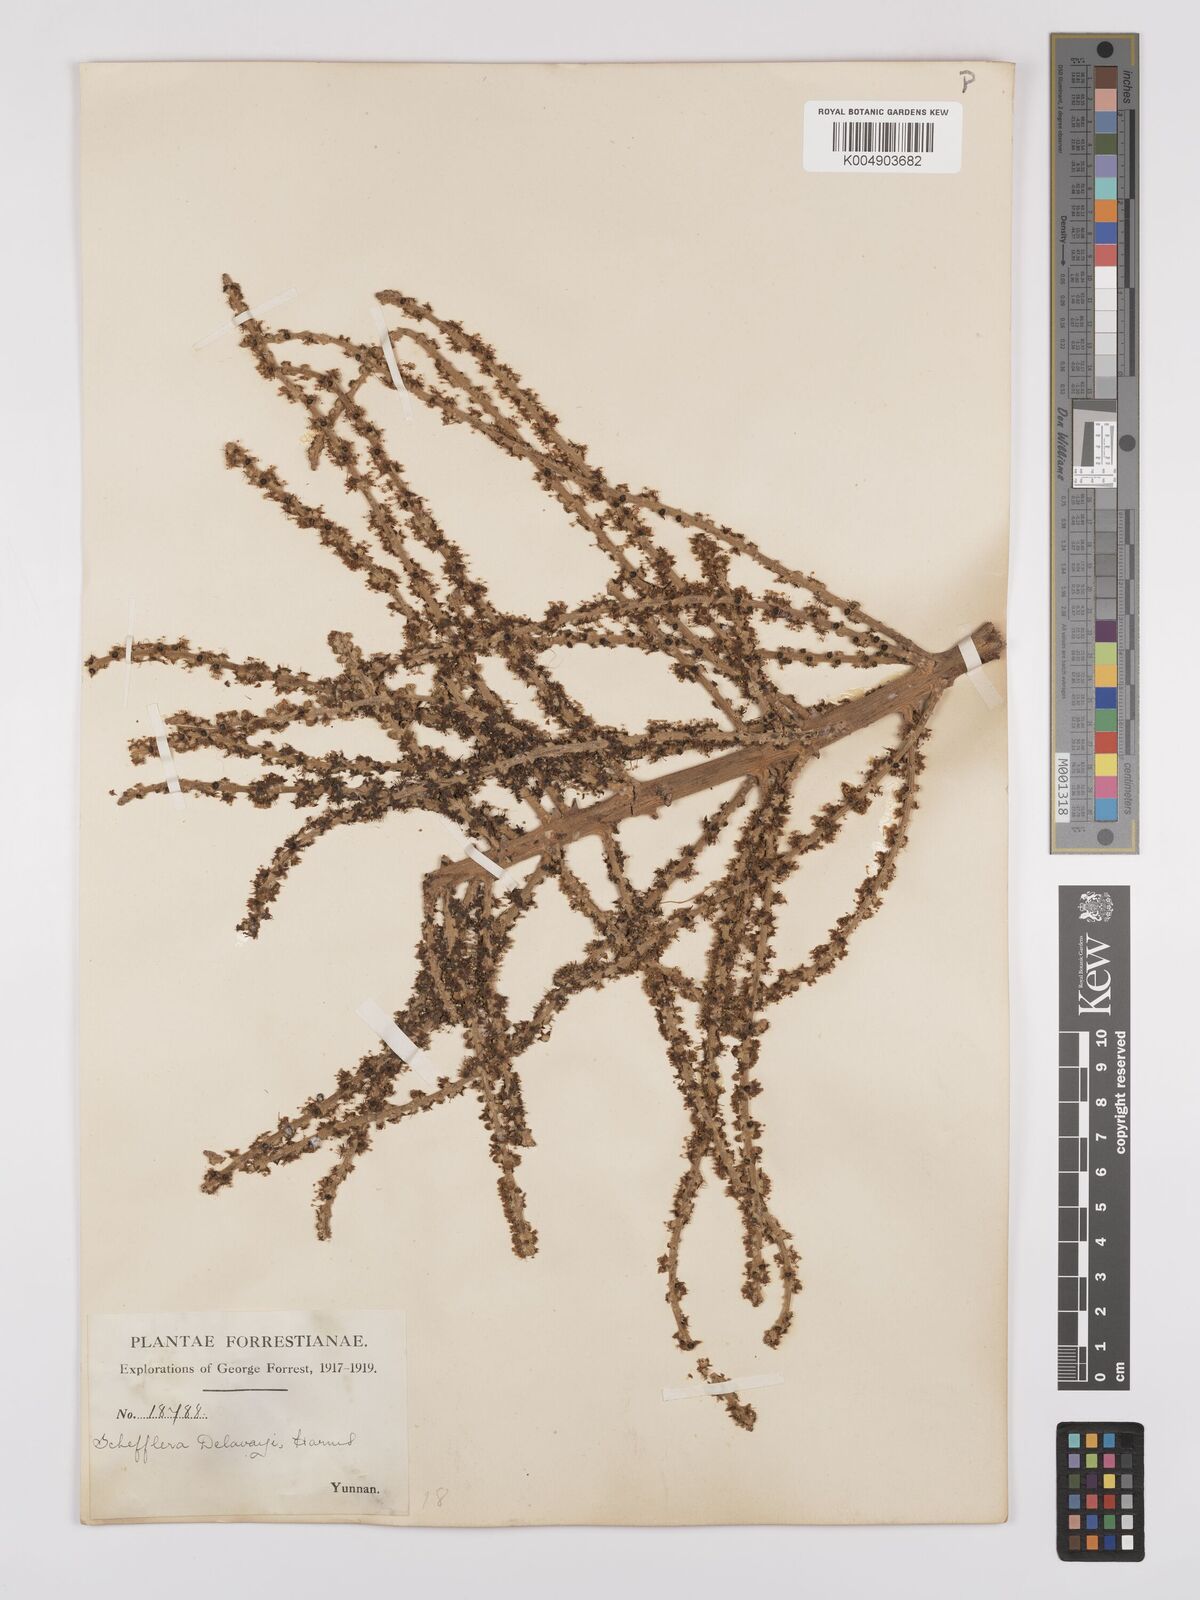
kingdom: Plantae
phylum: Tracheophyta
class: Magnoliopsida
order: Apiales
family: Araliaceae
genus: Heptapleurum
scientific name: Heptapleurum delavayi
